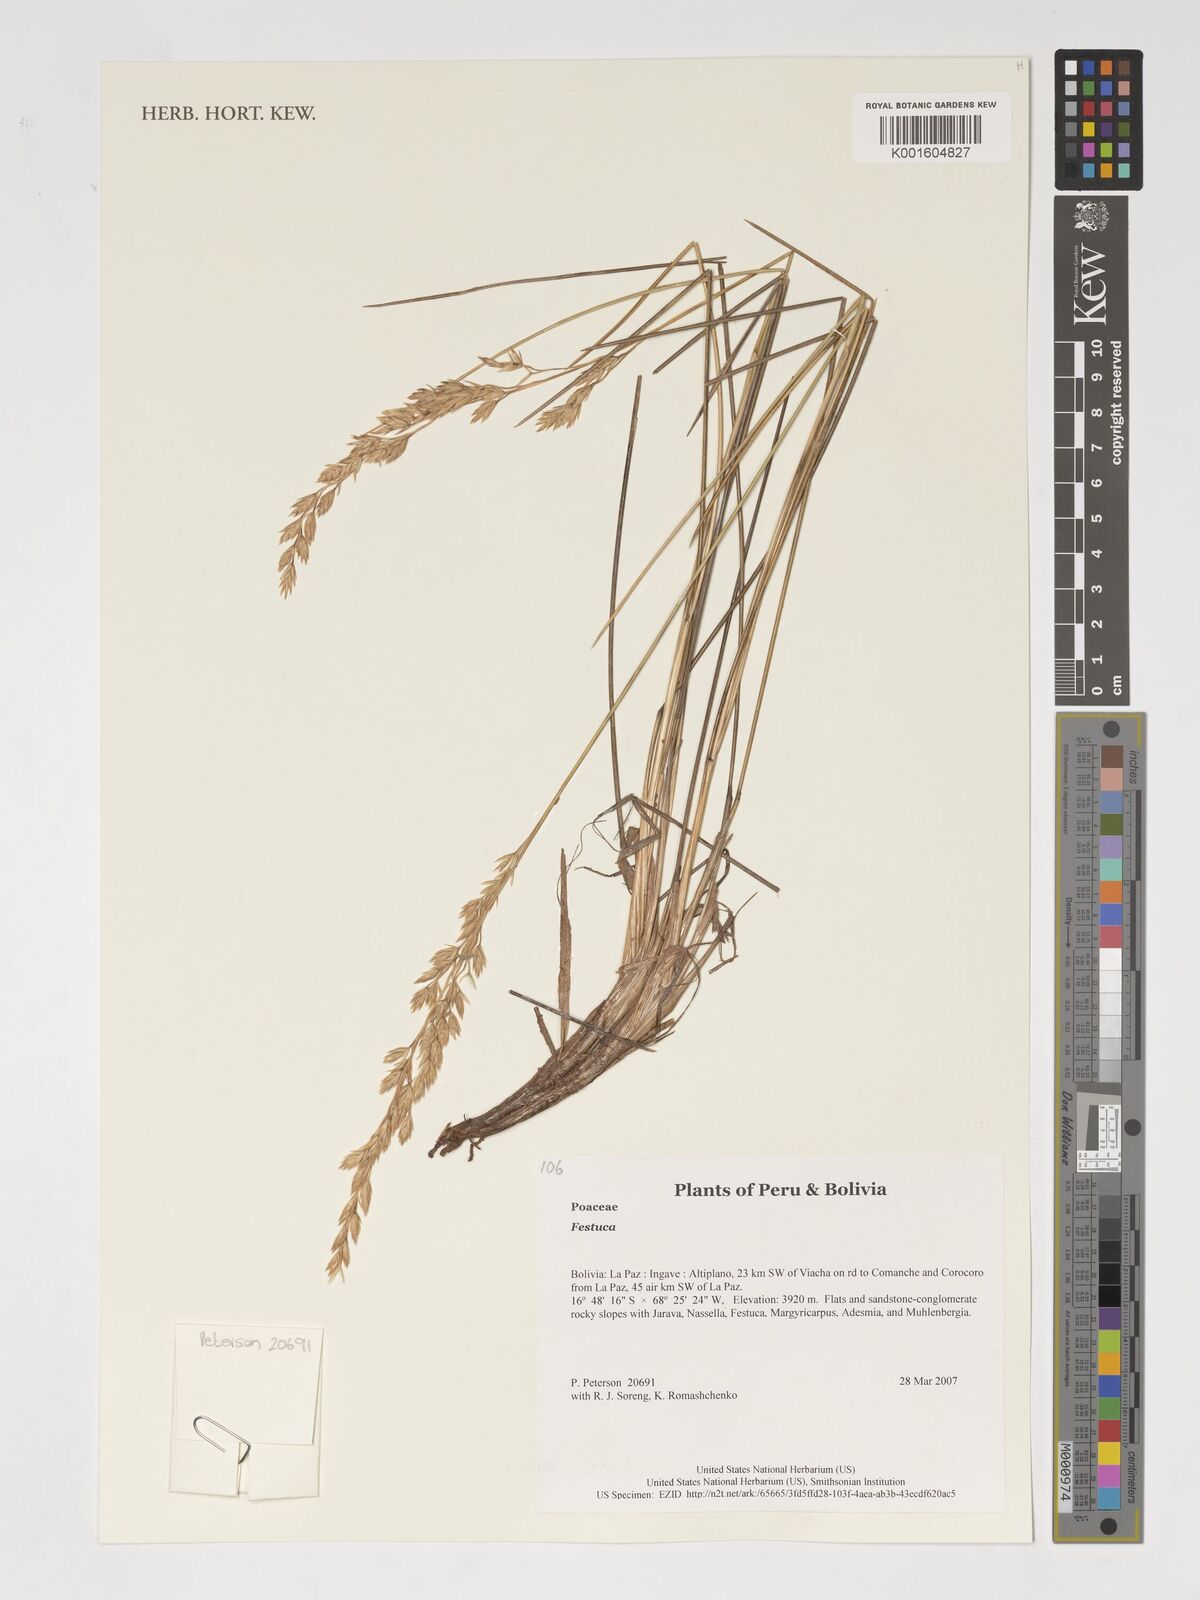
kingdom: Plantae
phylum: Tracheophyta
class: Liliopsida
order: Poales
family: Poaceae
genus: Festuca
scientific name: Festuca
